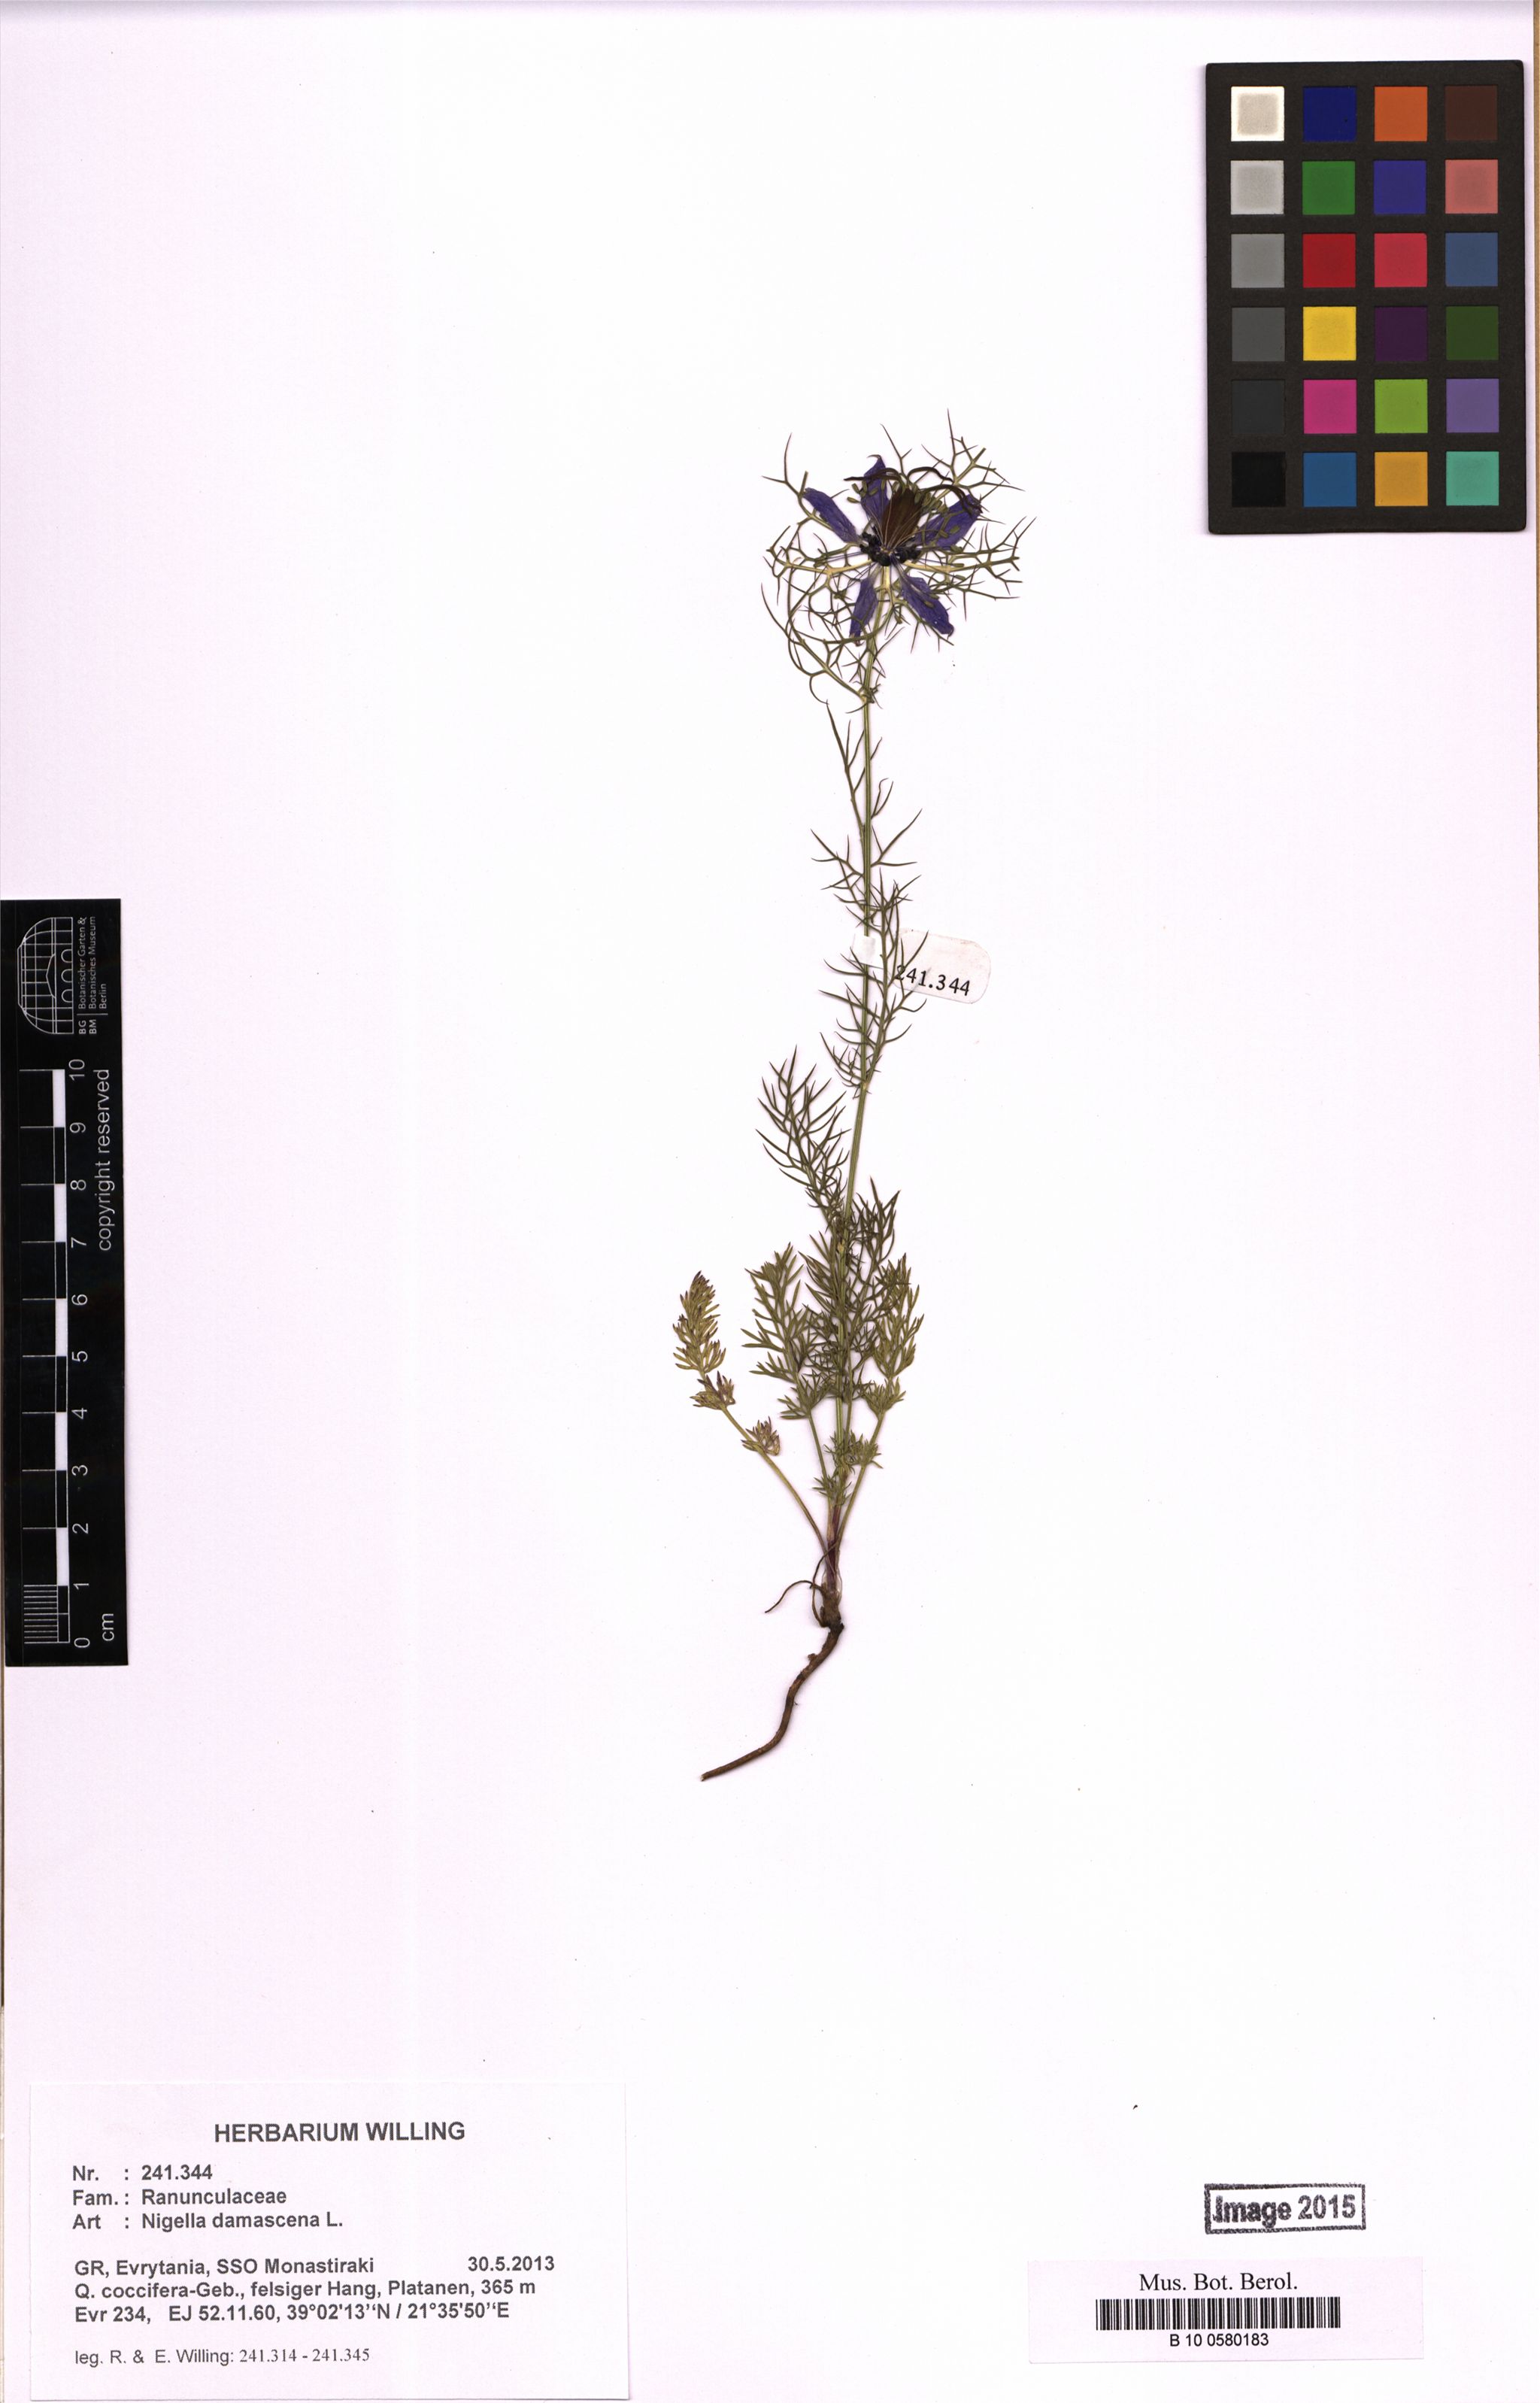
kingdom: Plantae
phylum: Tracheophyta
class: Magnoliopsida
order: Ranunculales
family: Ranunculaceae
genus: Nigella
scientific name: Nigella damascena
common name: Love-in-a-mist
